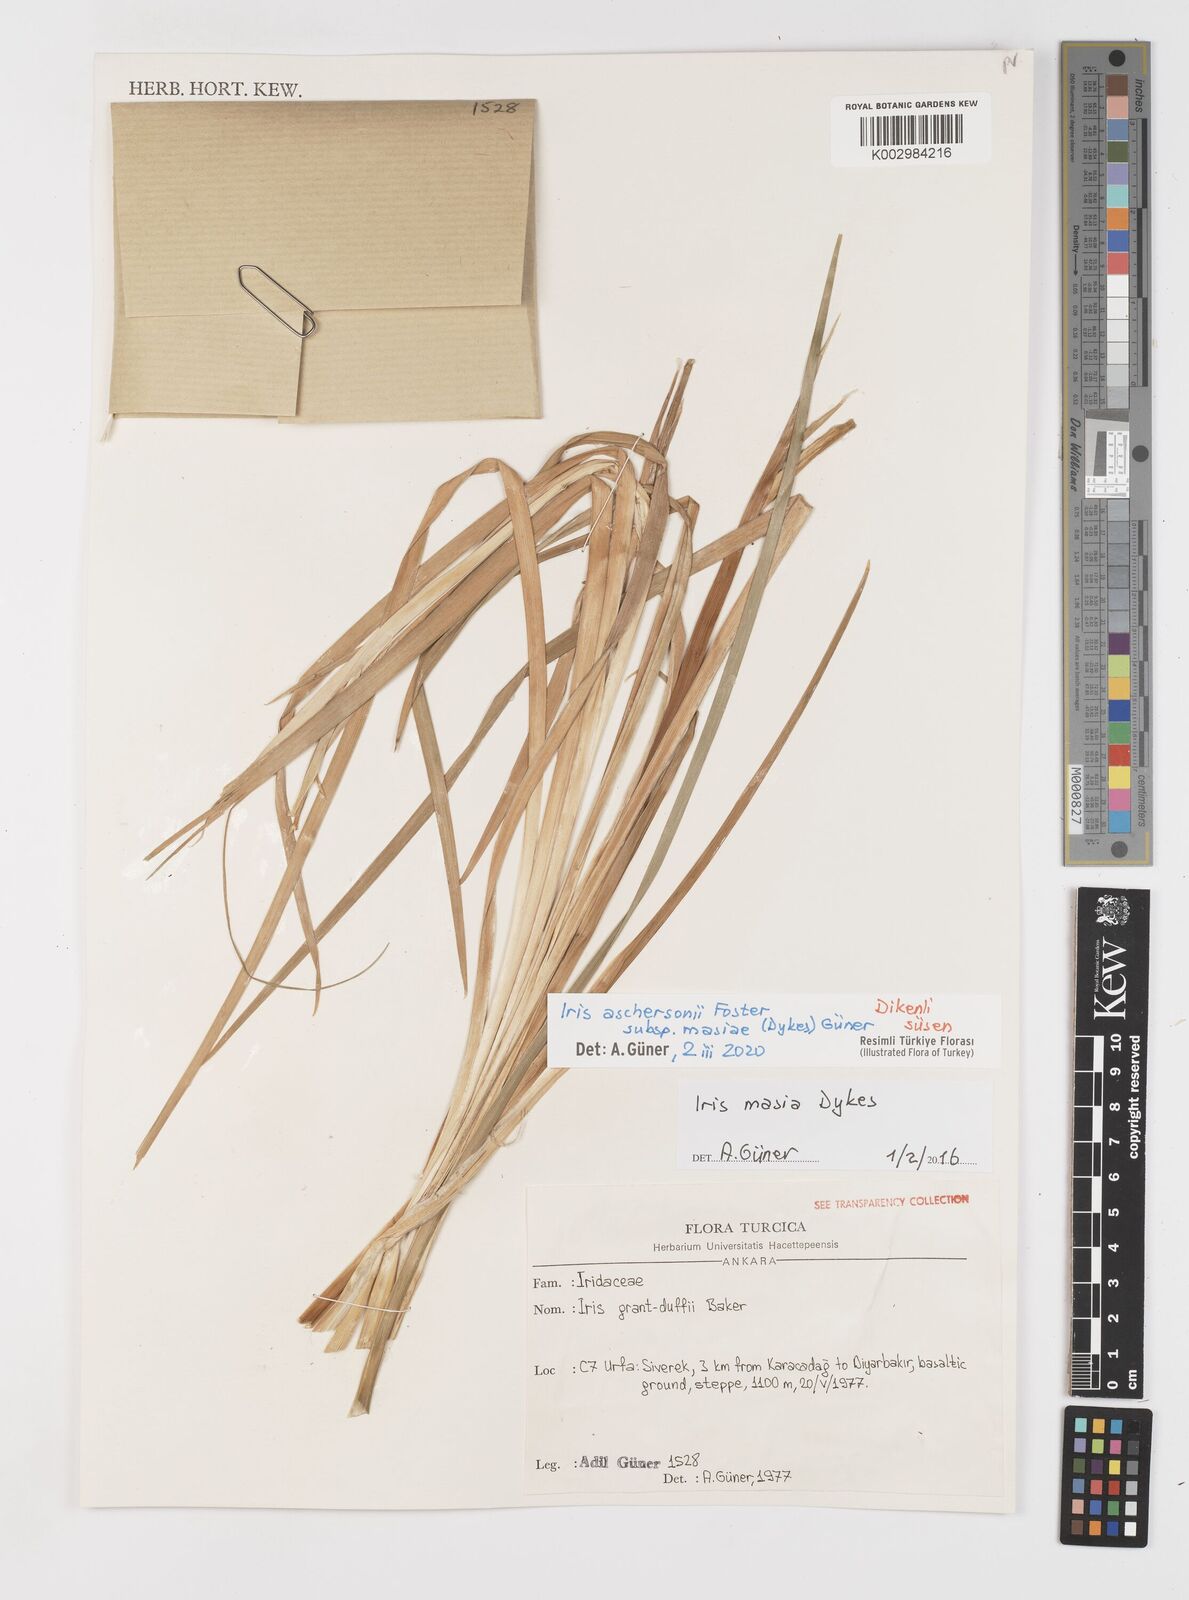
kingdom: Plantae
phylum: Tracheophyta
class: Liliopsida
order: Asparagales
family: Iridaceae
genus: Iris
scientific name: Iris grant-duffii
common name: Grant duff's iris
